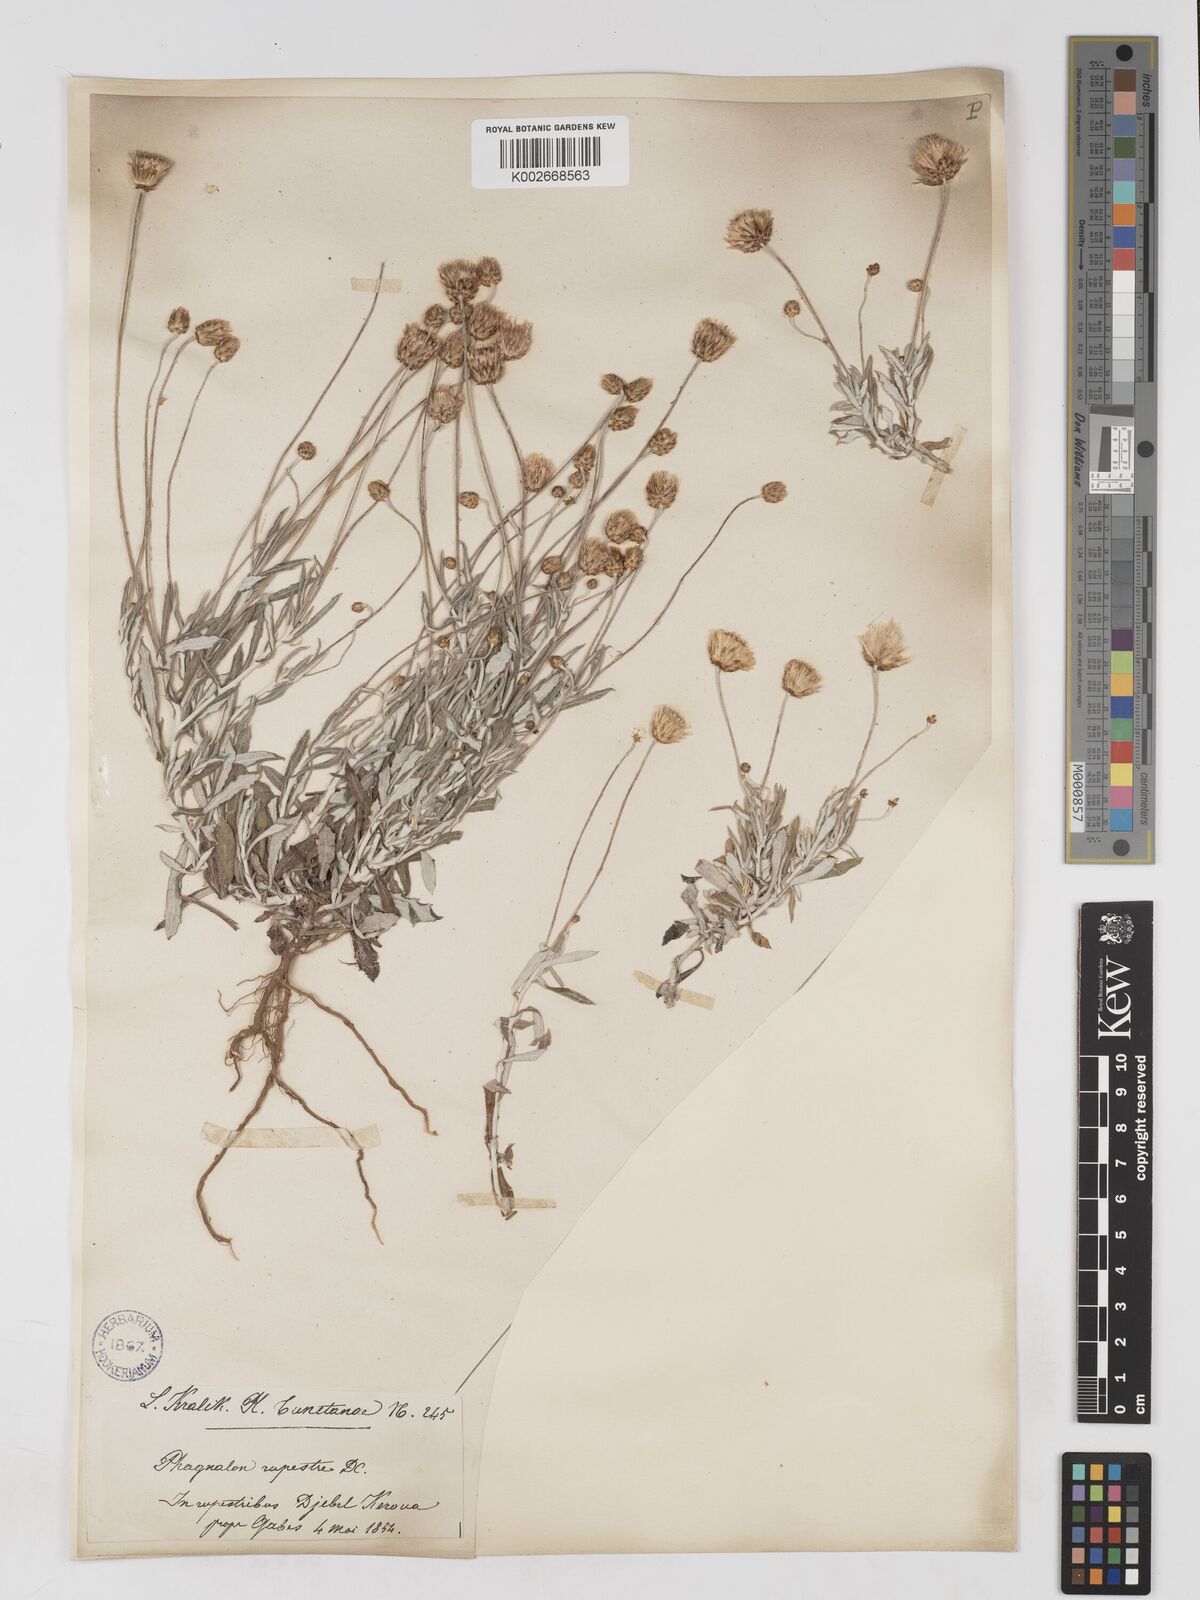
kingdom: Plantae
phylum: Tracheophyta
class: Magnoliopsida
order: Asterales
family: Asteraceae
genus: Phagnalon
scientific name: Phagnalon rupestre
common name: Rock phagnalon
